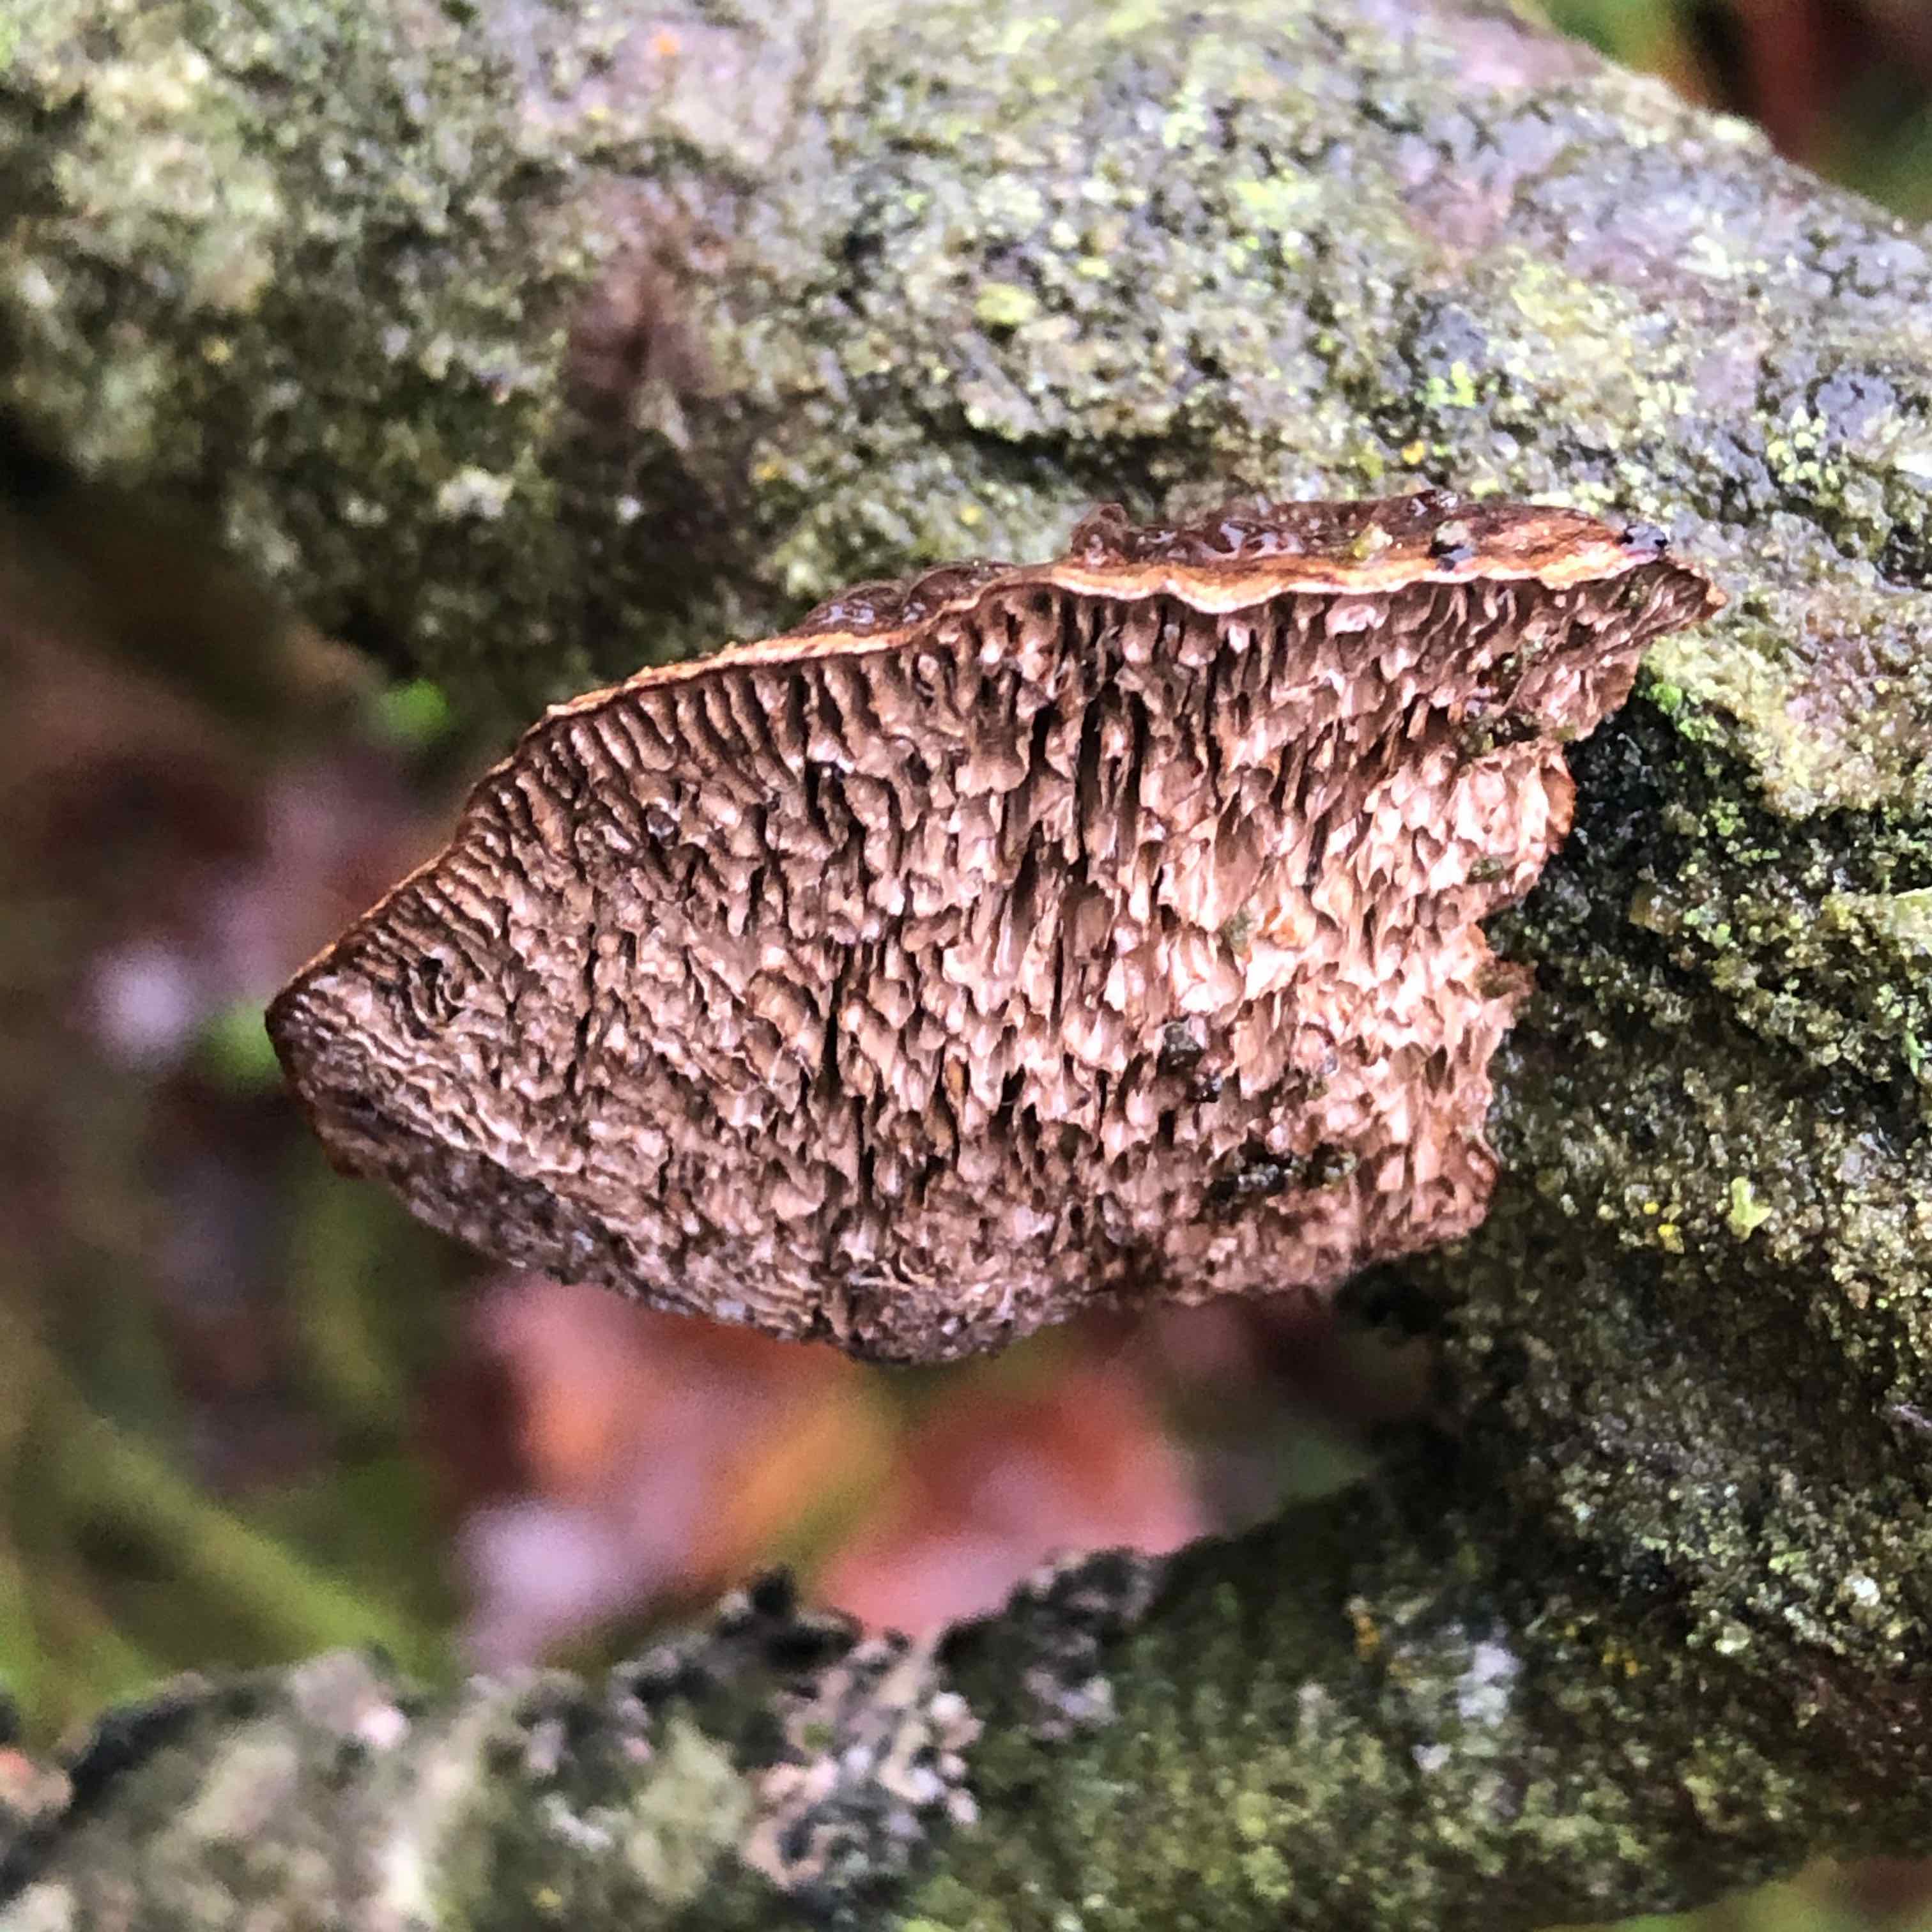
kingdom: Fungi
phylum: Basidiomycota
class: Agaricomycetes
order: Polyporales
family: Polyporaceae
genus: Daedaleopsis
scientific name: Daedaleopsis confragosa
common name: rødmende læderporesvamp
